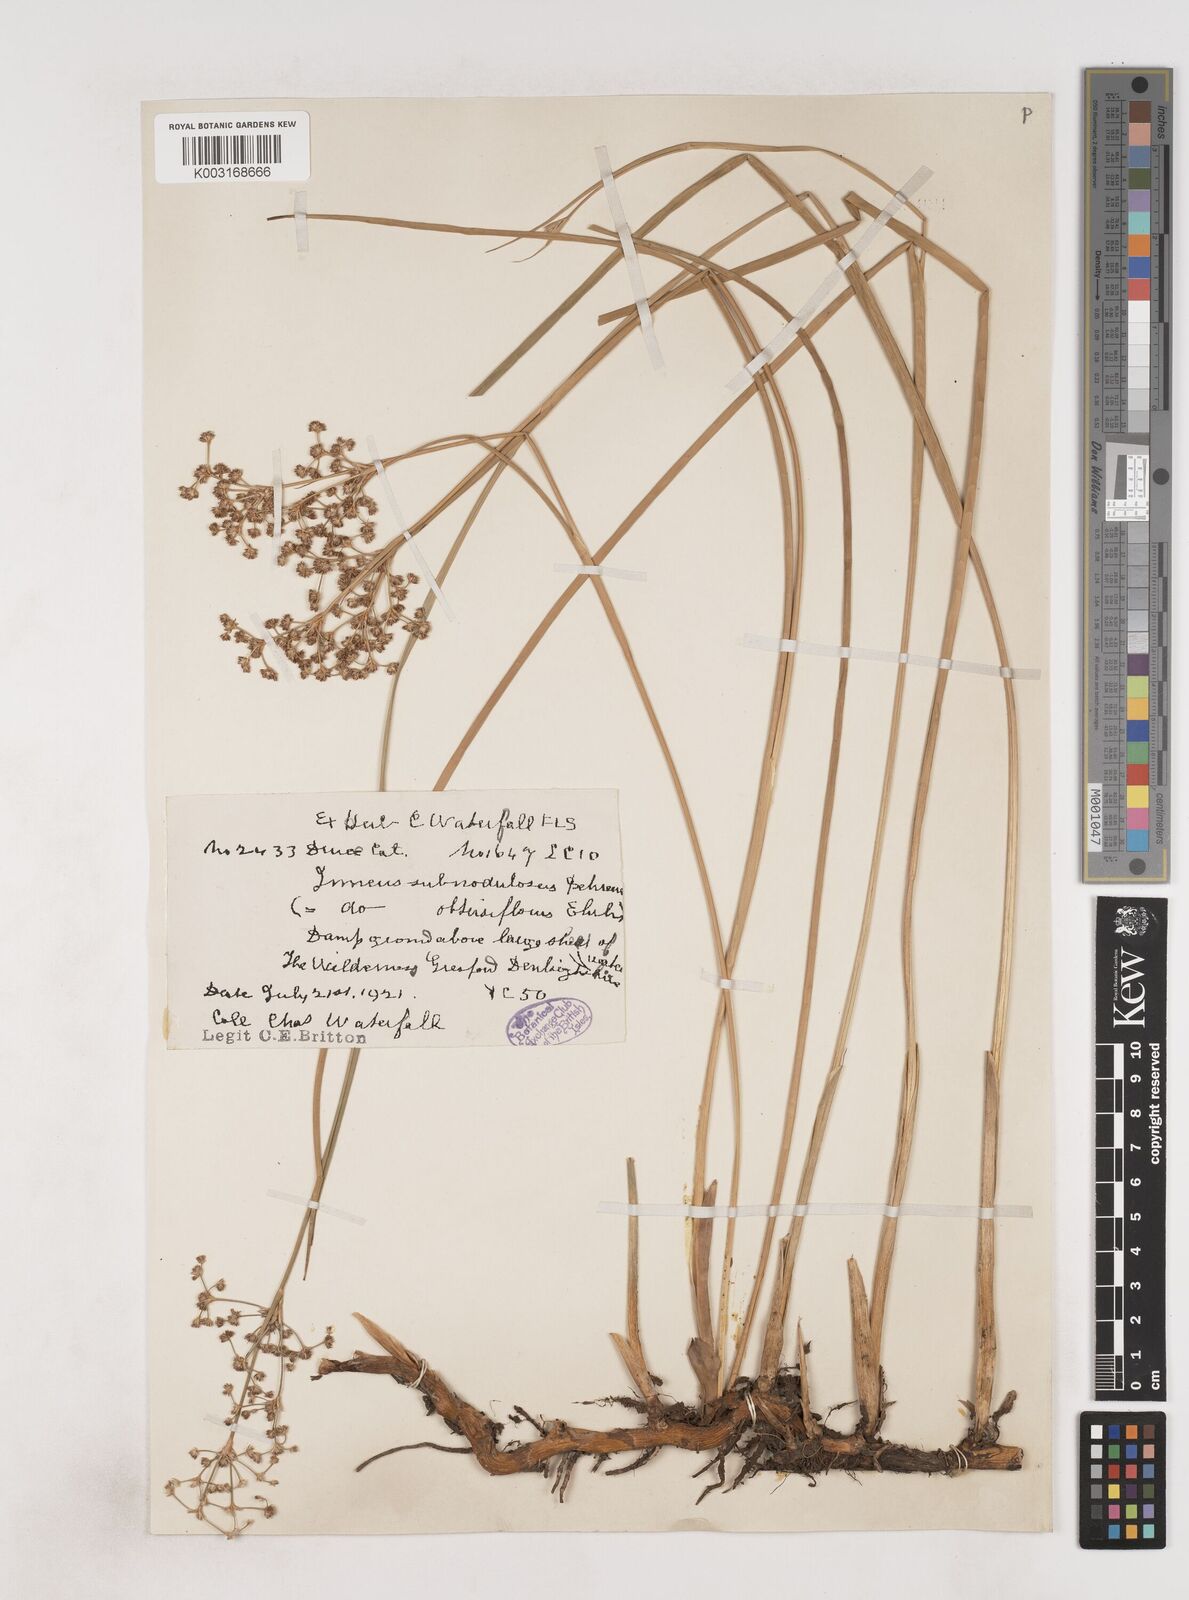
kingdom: Plantae
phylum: Tracheophyta
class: Liliopsida
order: Poales
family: Juncaceae
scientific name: Juncaceae
